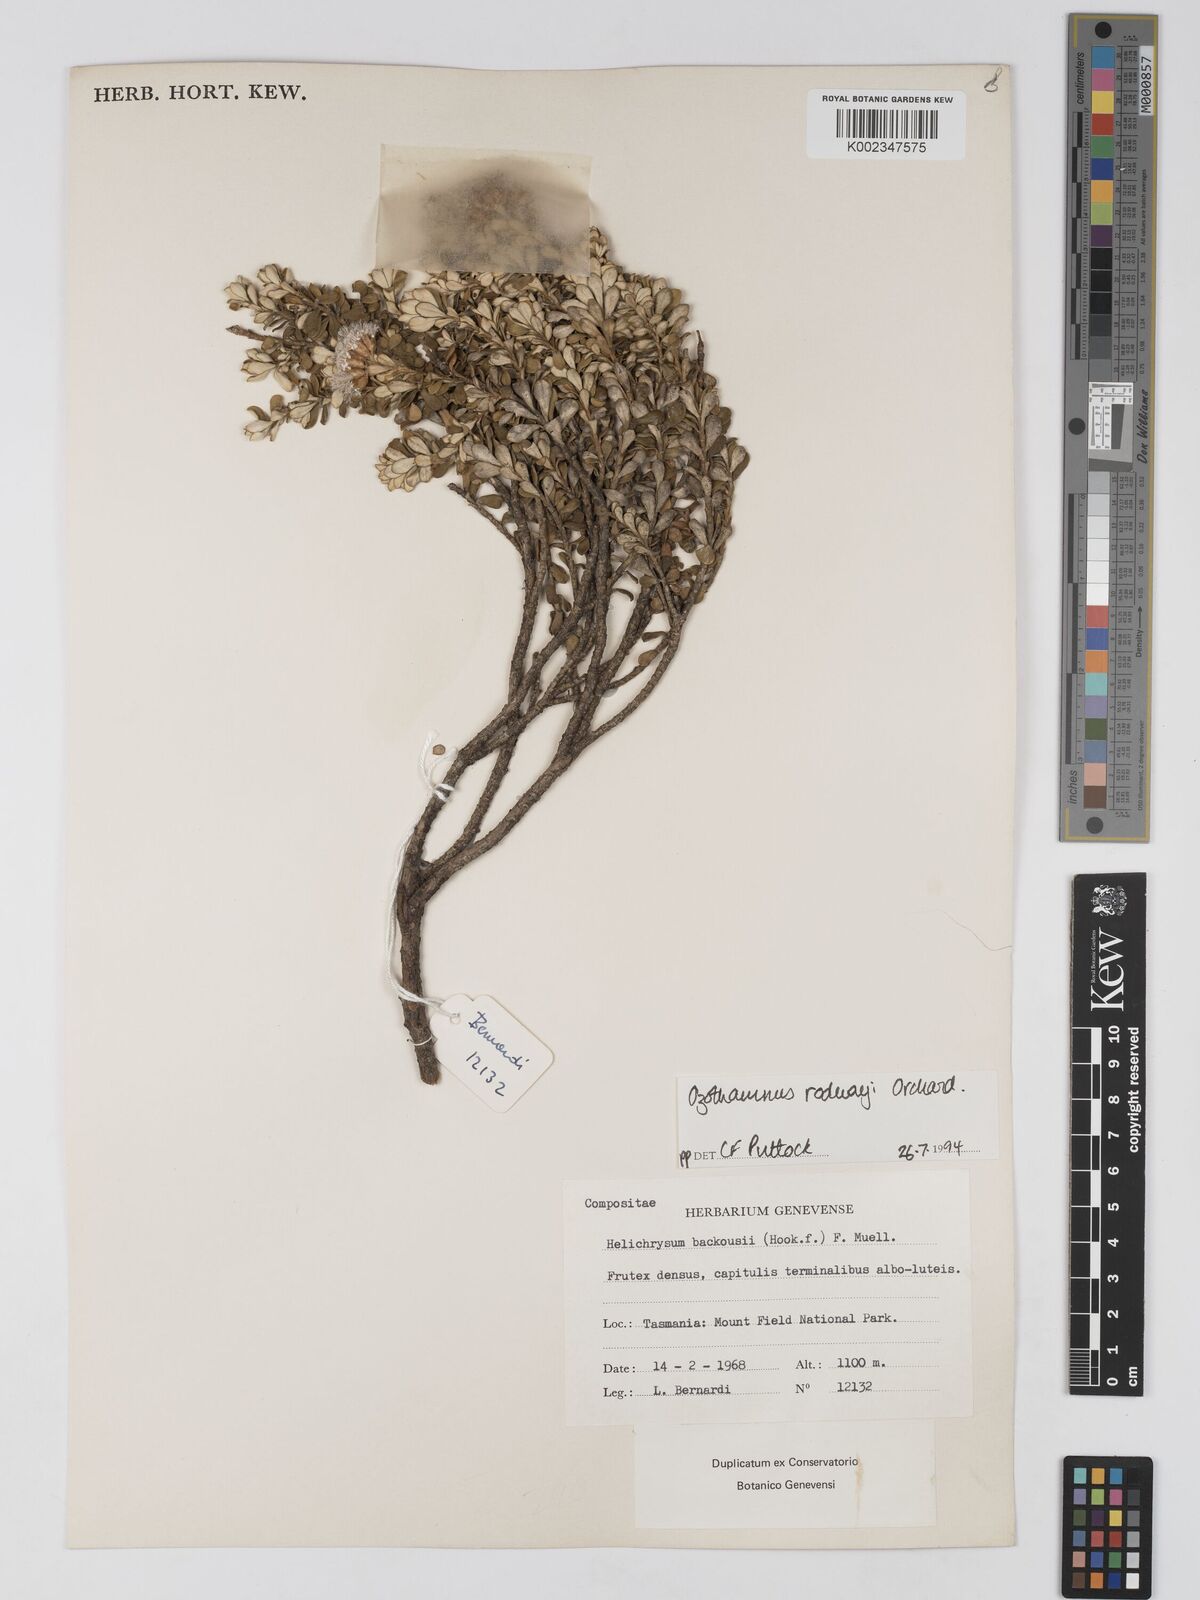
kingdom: Plantae
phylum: Tracheophyta
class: Magnoliopsida
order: Asterales
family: Asteraceae
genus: Ozothamnus
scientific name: Ozothamnus rodwayi
